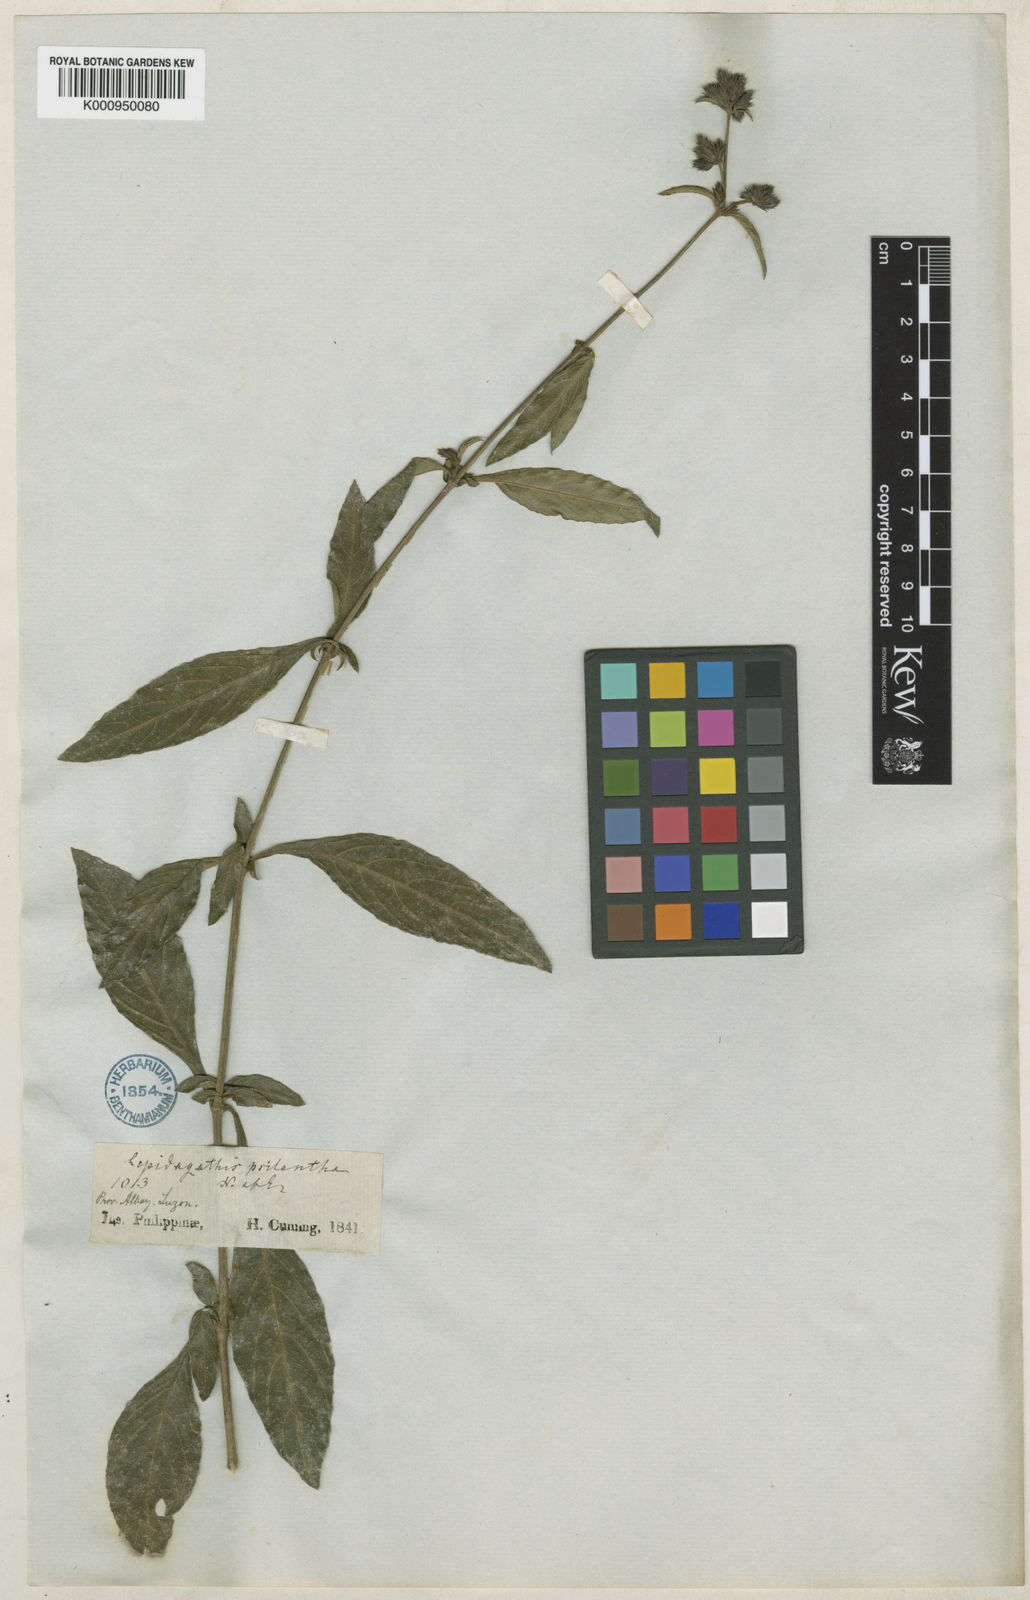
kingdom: Plantae
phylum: Tracheophyta
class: Magnoliopsida
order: Lamiales
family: Acanthaceae
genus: Lepidagathis
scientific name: Lepidagathis psilantha
